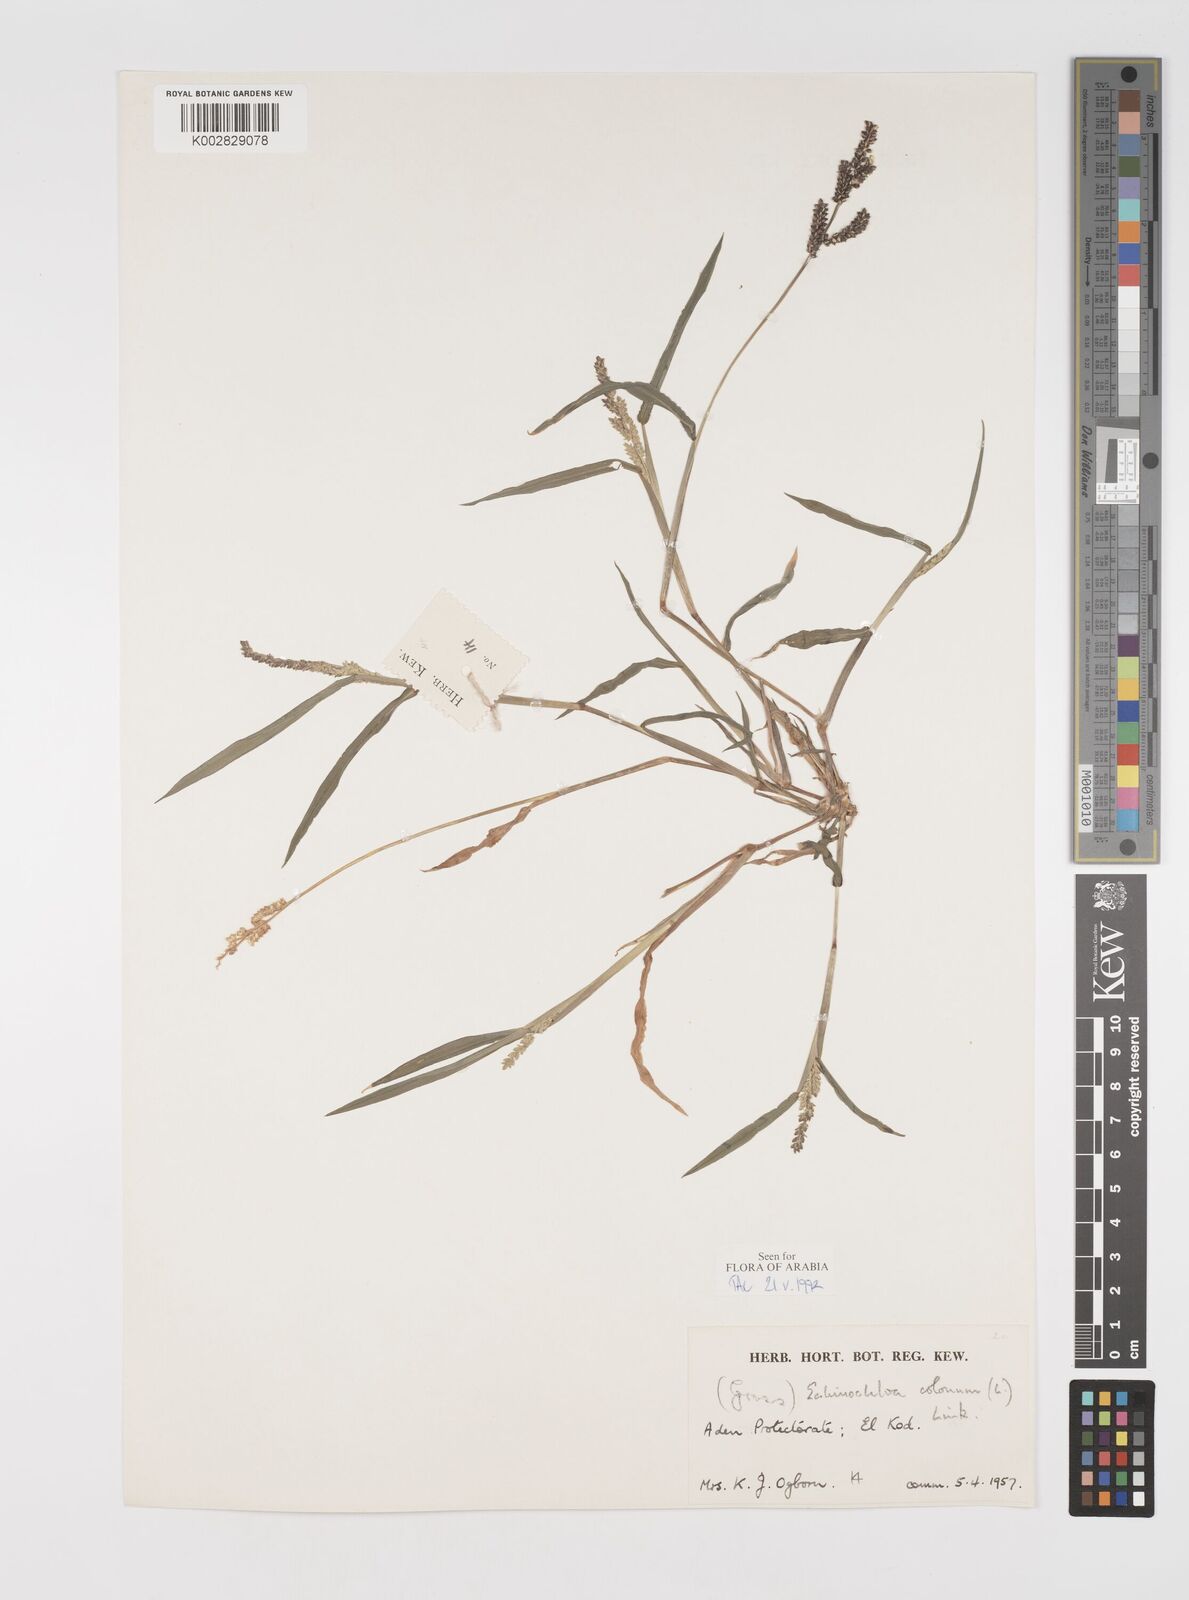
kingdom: Plantae
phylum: Tracheophyta
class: Liliopsida
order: Poales
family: Poaceae
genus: Echinochloa
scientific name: Echinochloa colonum
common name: Jungle rice
